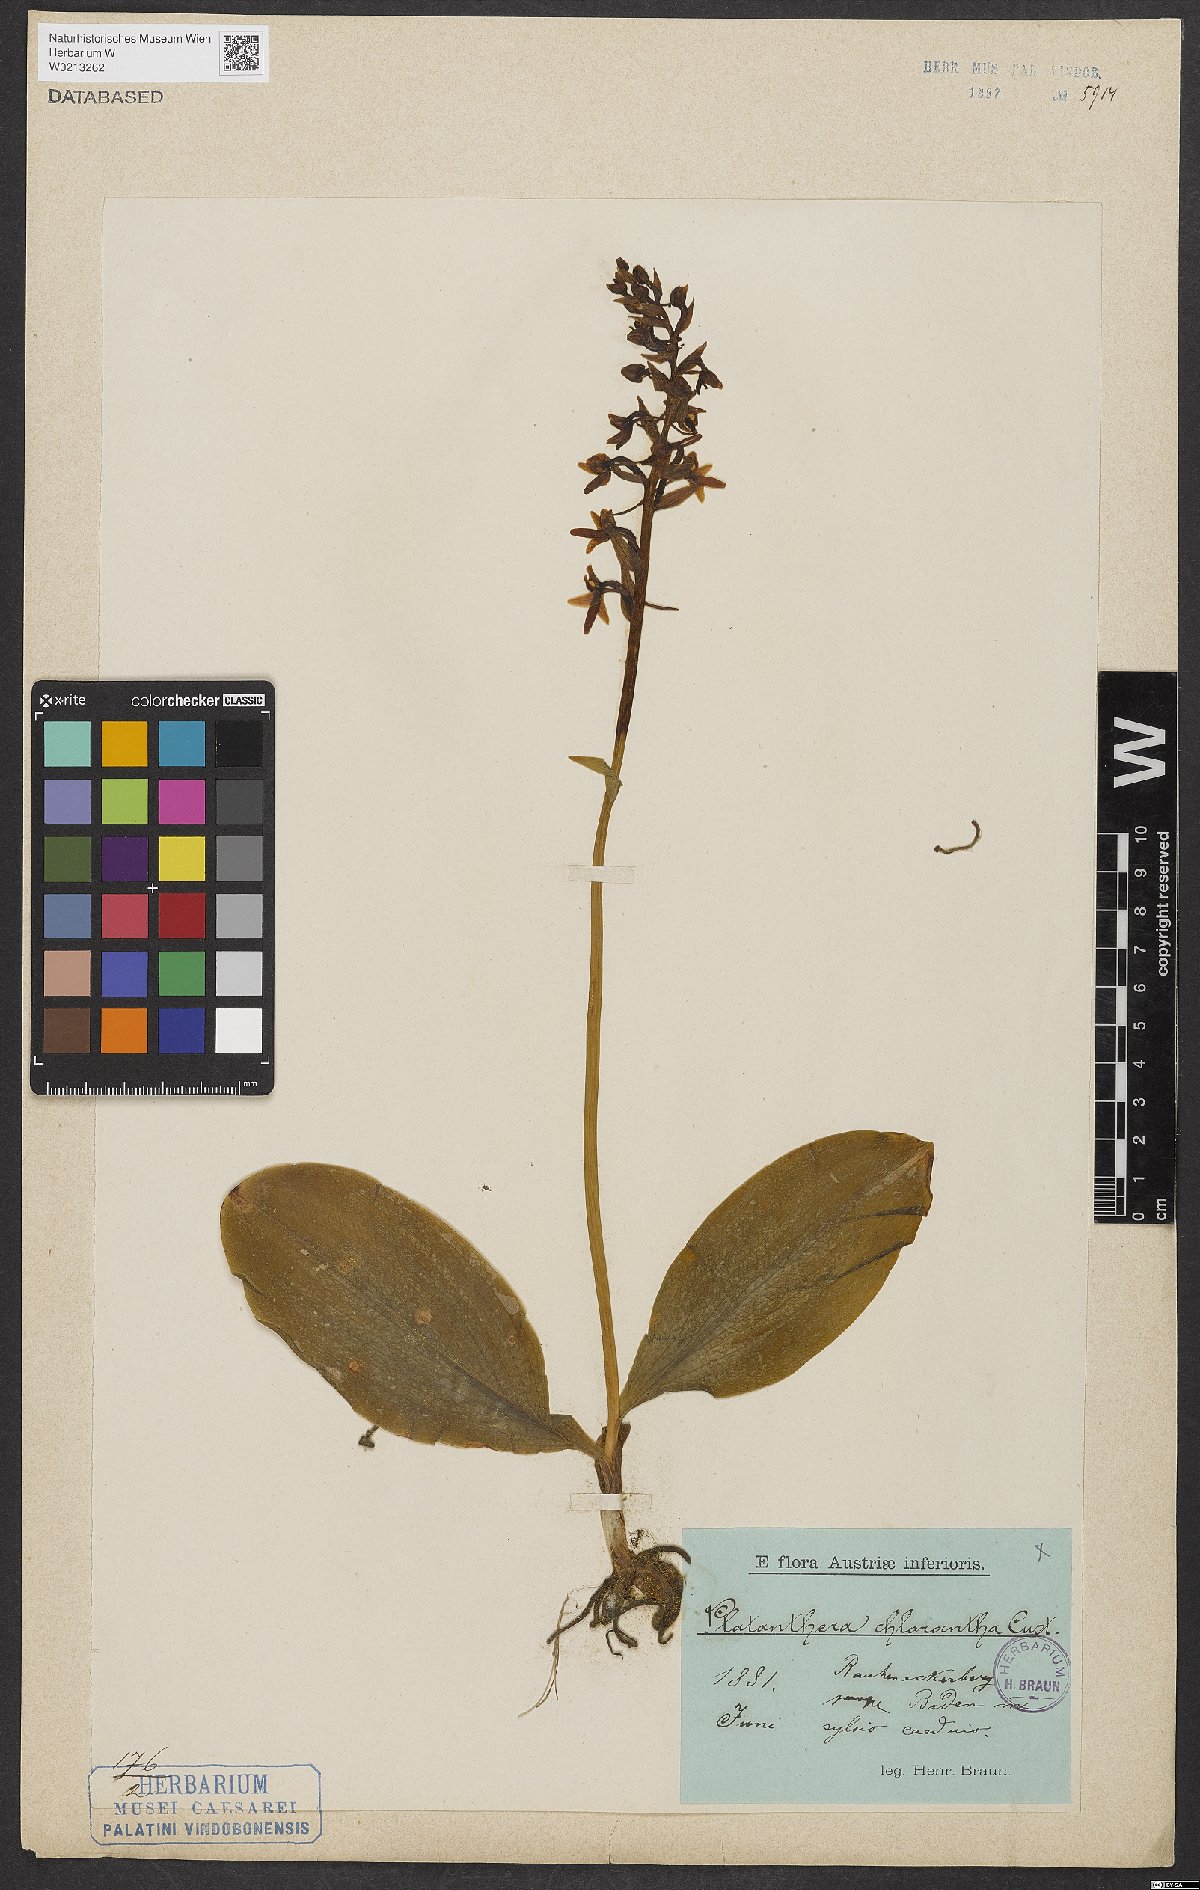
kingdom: Plantae
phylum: Tracheophyta
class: Liliopsida
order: Asparagales
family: Orchidaceae
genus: Platanthera
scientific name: Platanthera chlorantha
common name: Greater butterfly-orchid
